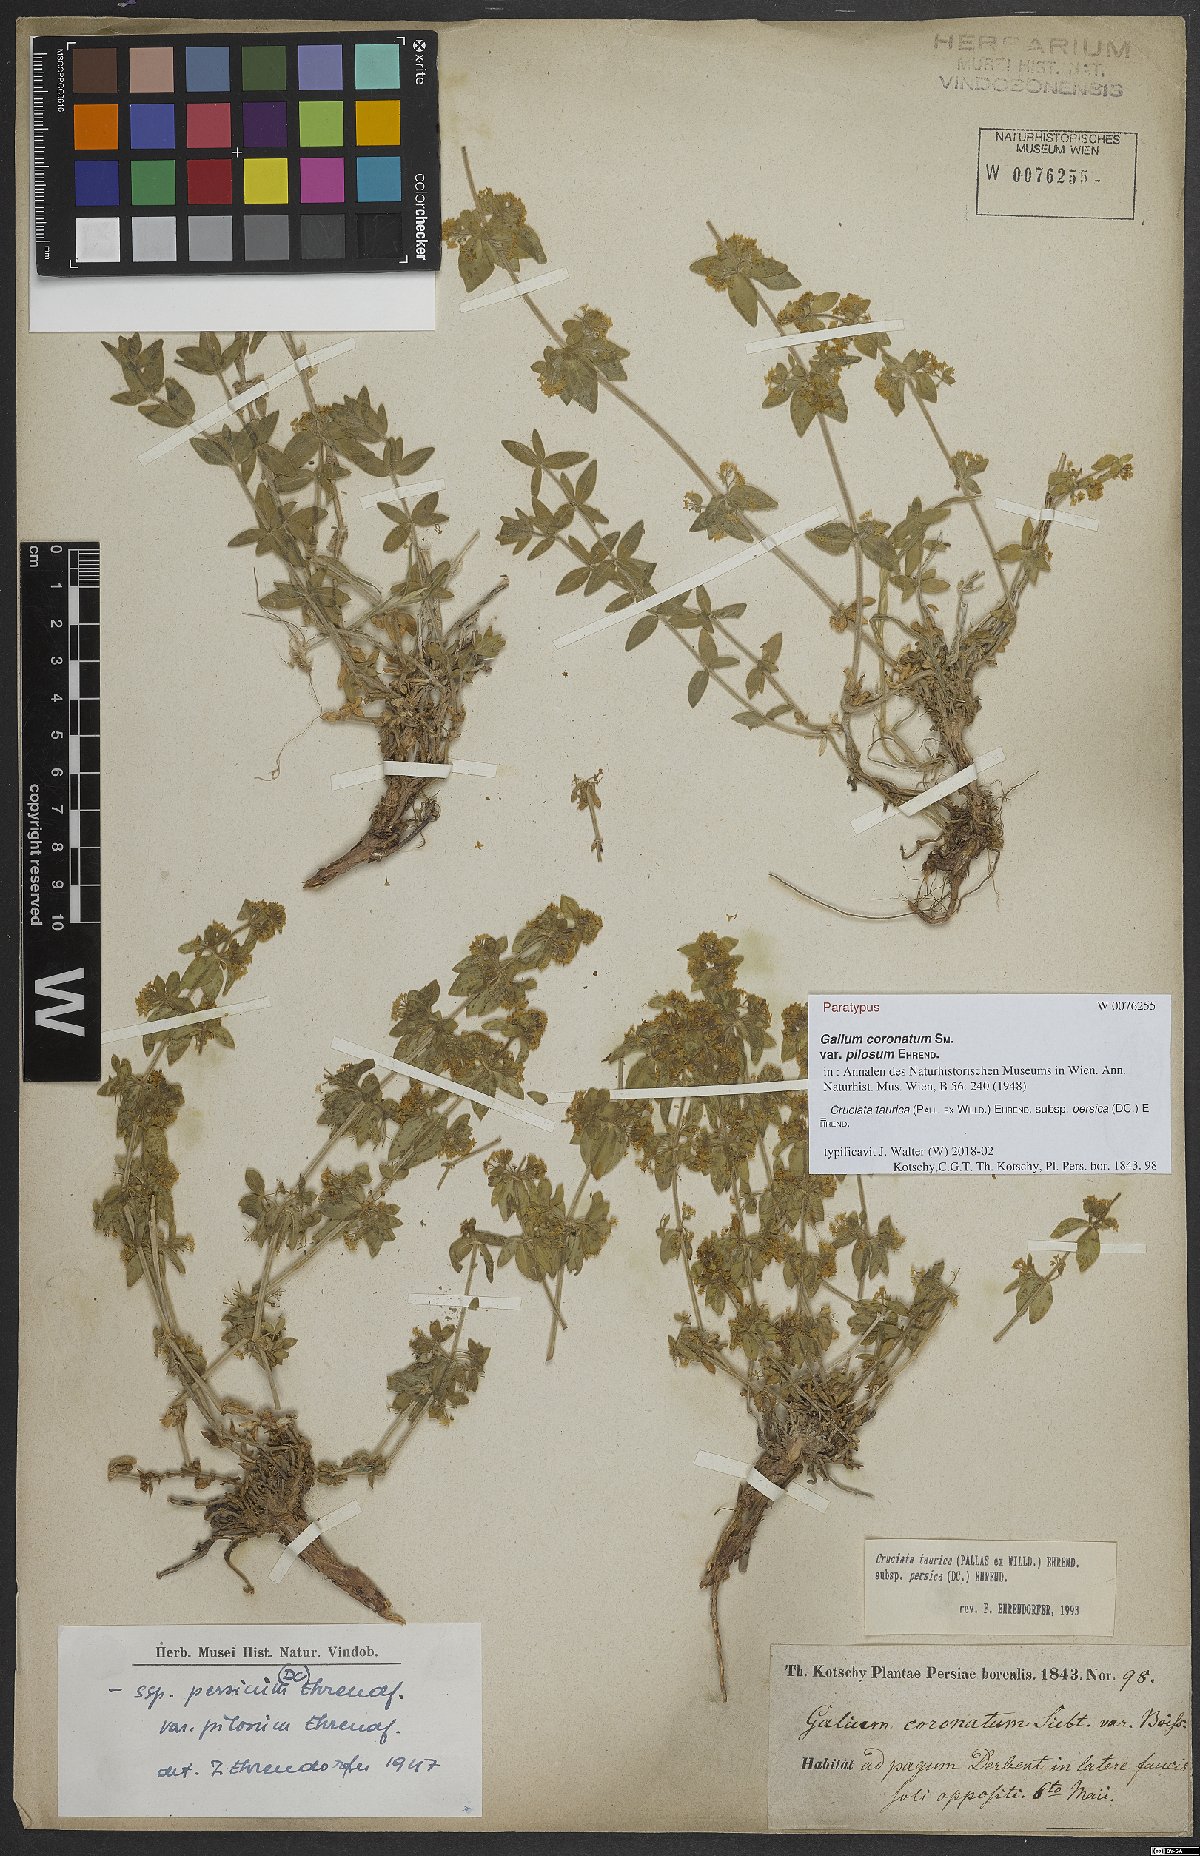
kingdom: Plantae
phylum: Tracheophyta
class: Magnoliopsida
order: Gentianales
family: Rubiaceae
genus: Cruciata
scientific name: Cruciata taurica
